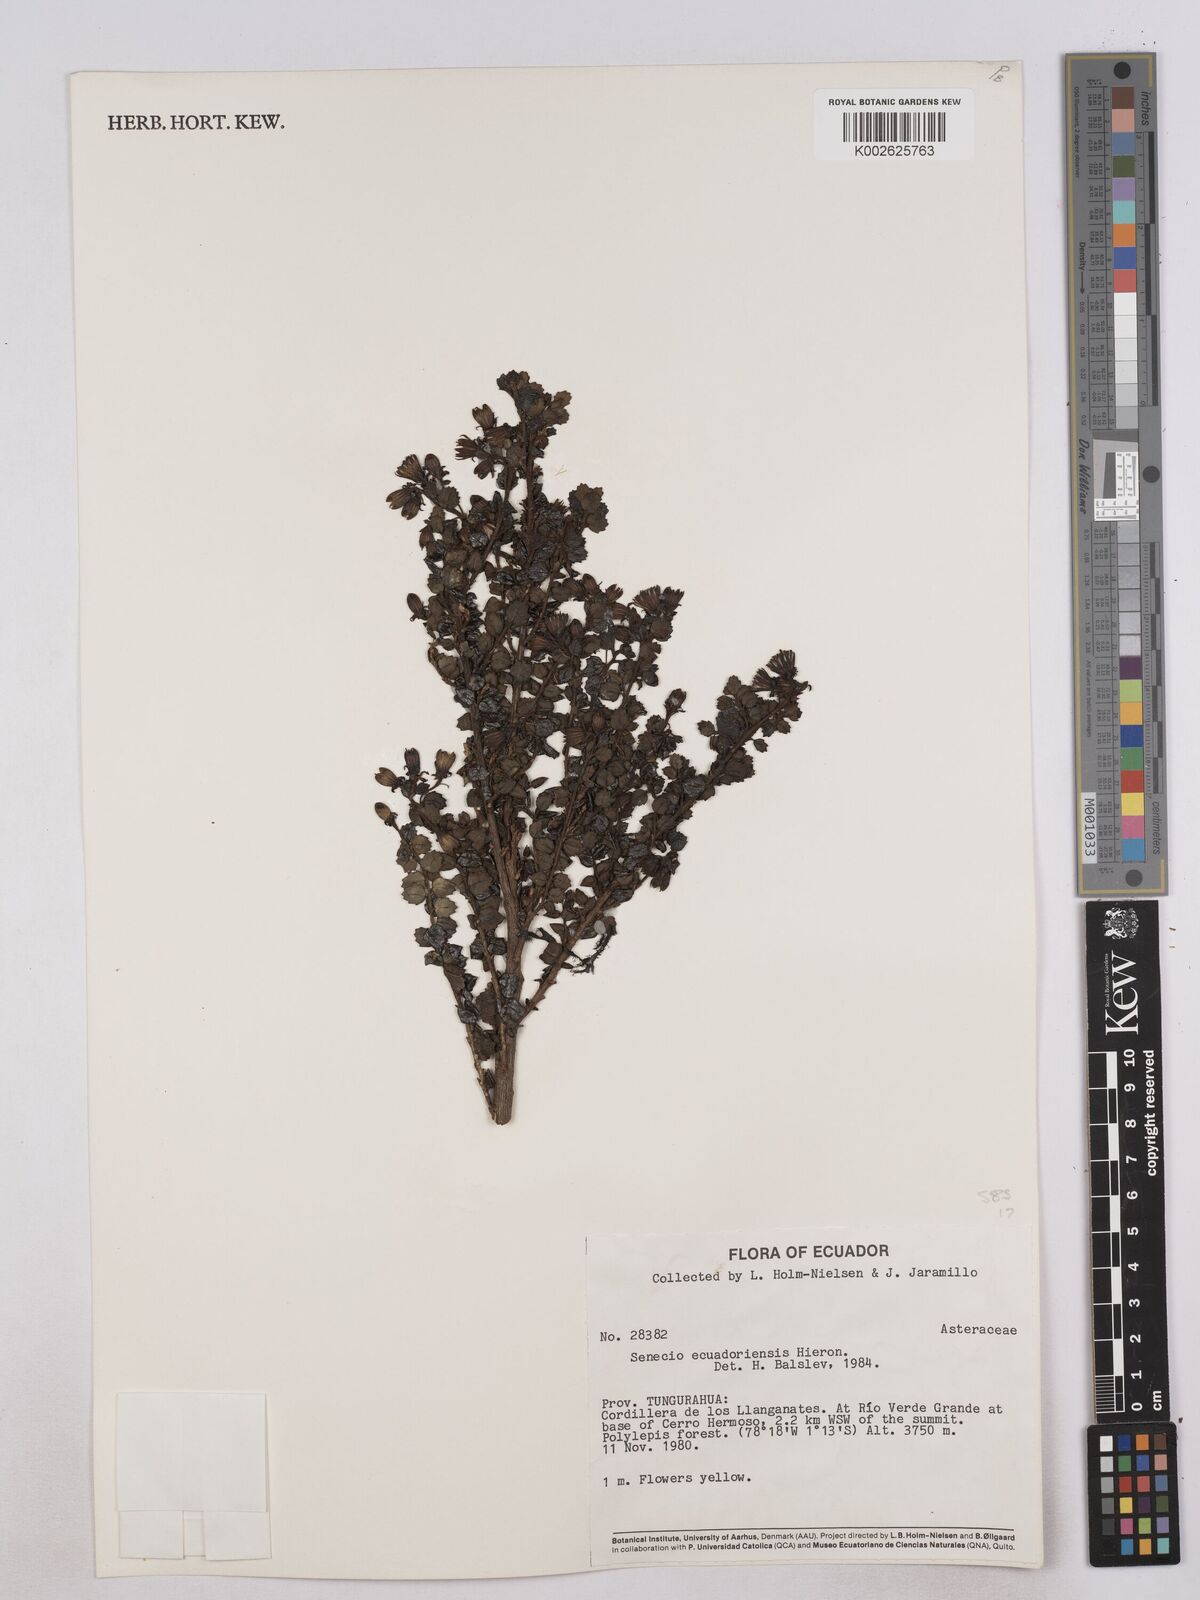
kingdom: Plantae
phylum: Tracheophyta
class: Magnoliopsida
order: Asterales
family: Asteraceae
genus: Monticalia
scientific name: Monticalia myrsinites
